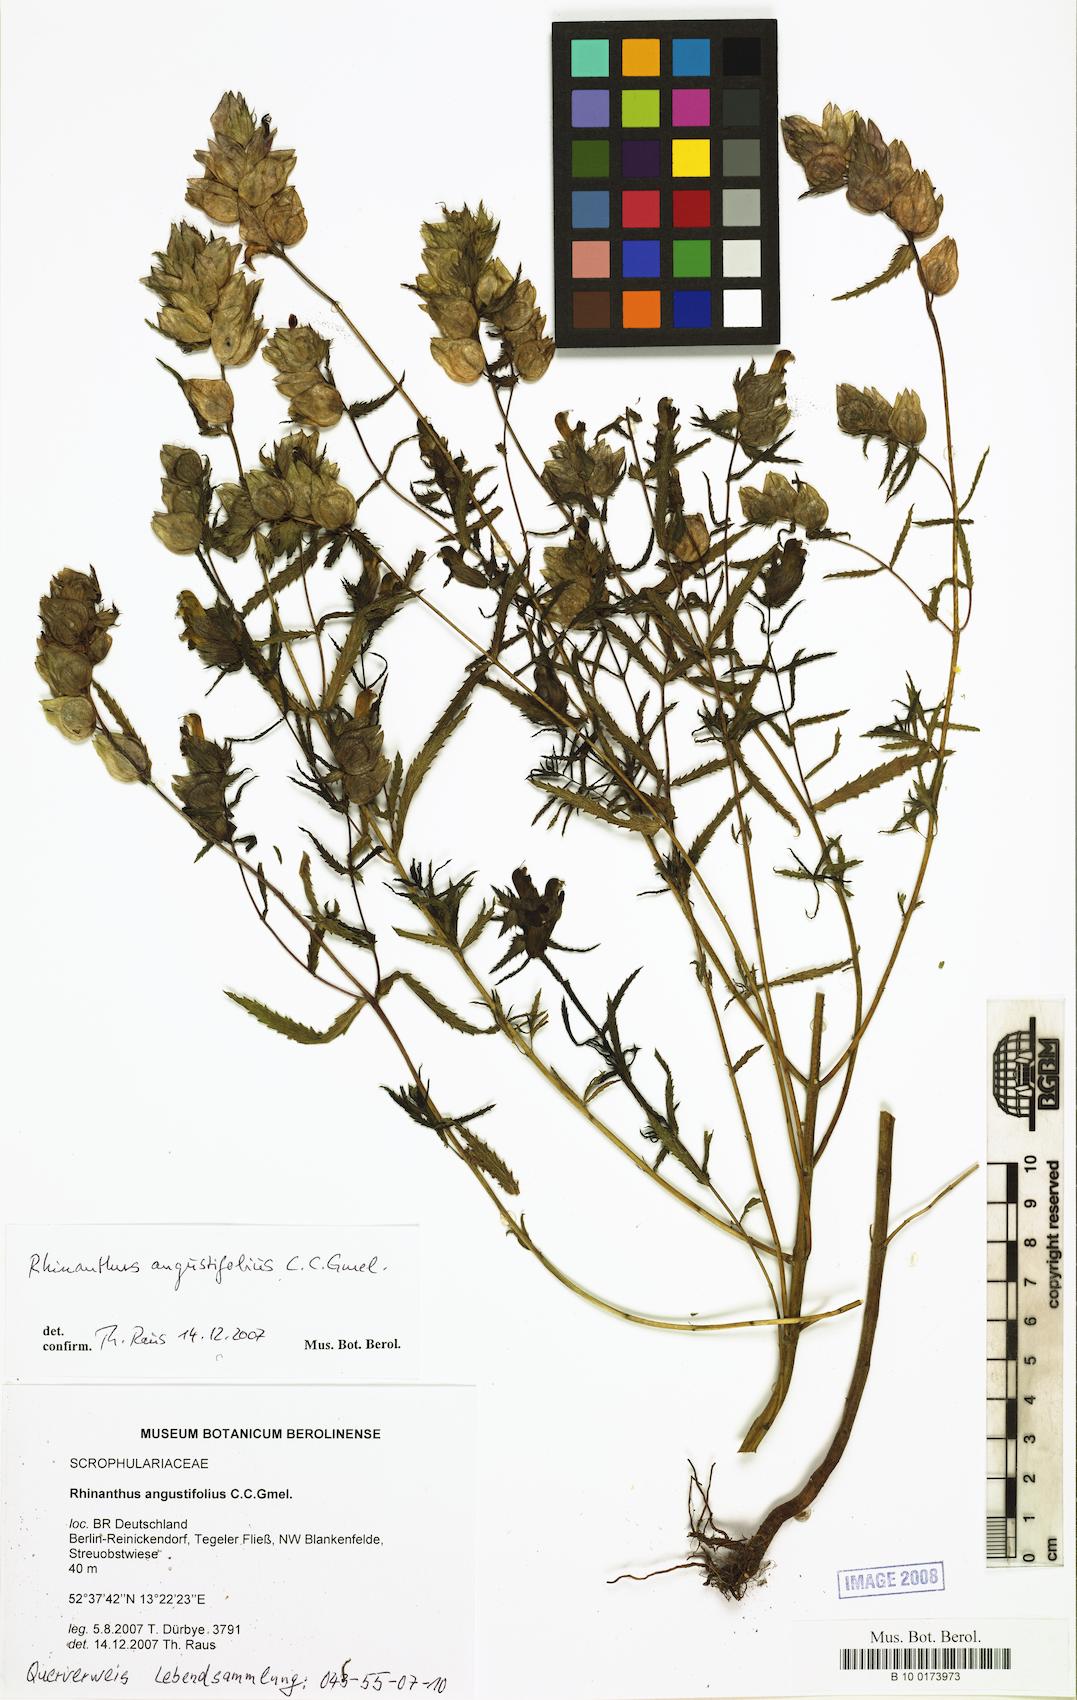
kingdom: Plantae
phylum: Tracheophyta
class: Magnoliopsida
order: Lamiales
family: Orobanchaceae
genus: Rhinanthus
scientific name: Rhinanthus
